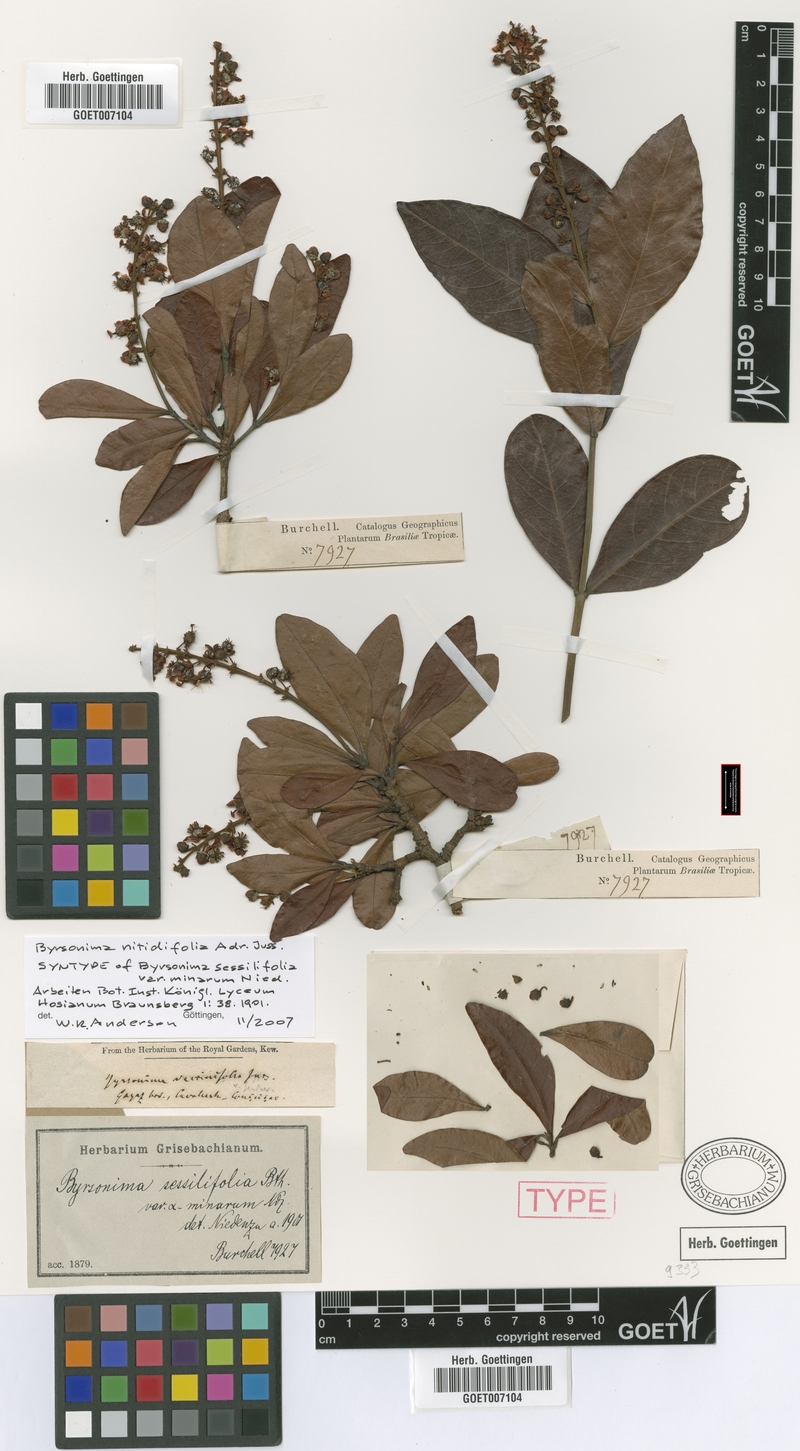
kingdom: Plantae
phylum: Tracheophyta
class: Magnoliopsida
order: Malpighiales
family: Malpighiaceae
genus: Byrsonima
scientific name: Byrsonima nitidifolia
